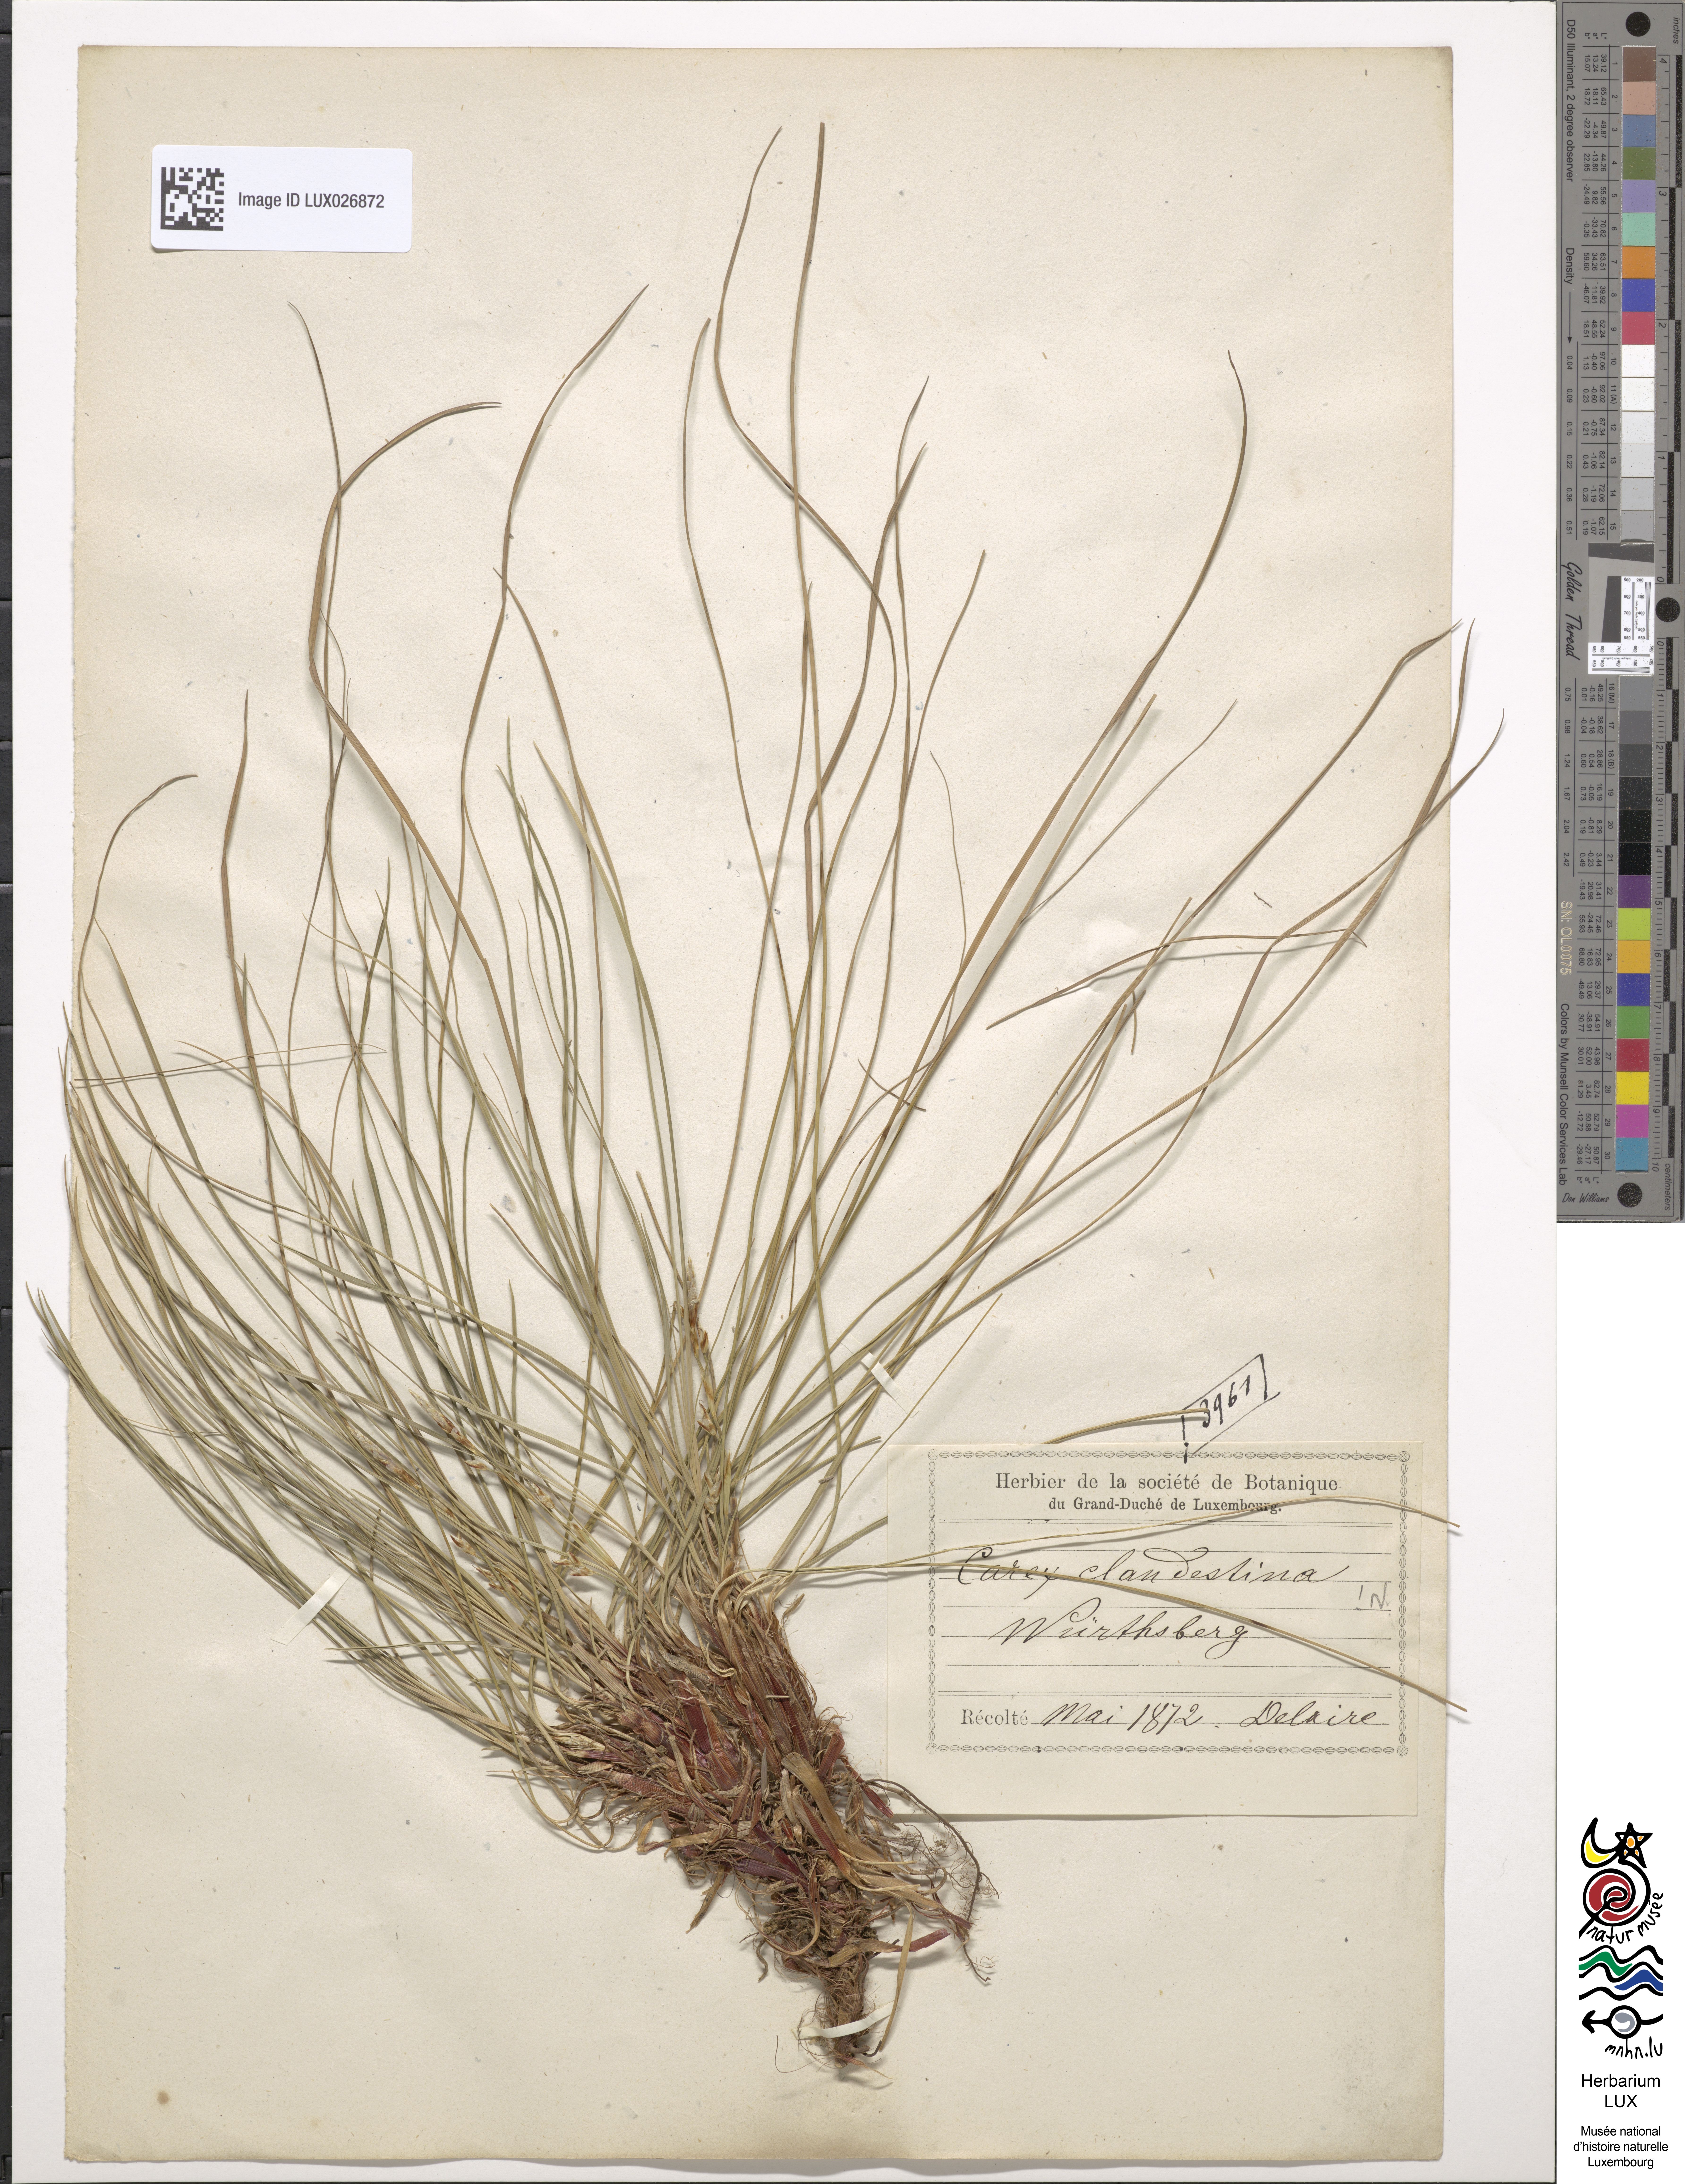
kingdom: Plantae
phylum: Tracheophyta
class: Liliopsida
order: Poales
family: Cyperaceae
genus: Carex
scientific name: Carex humilis
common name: Dwarf sedge
